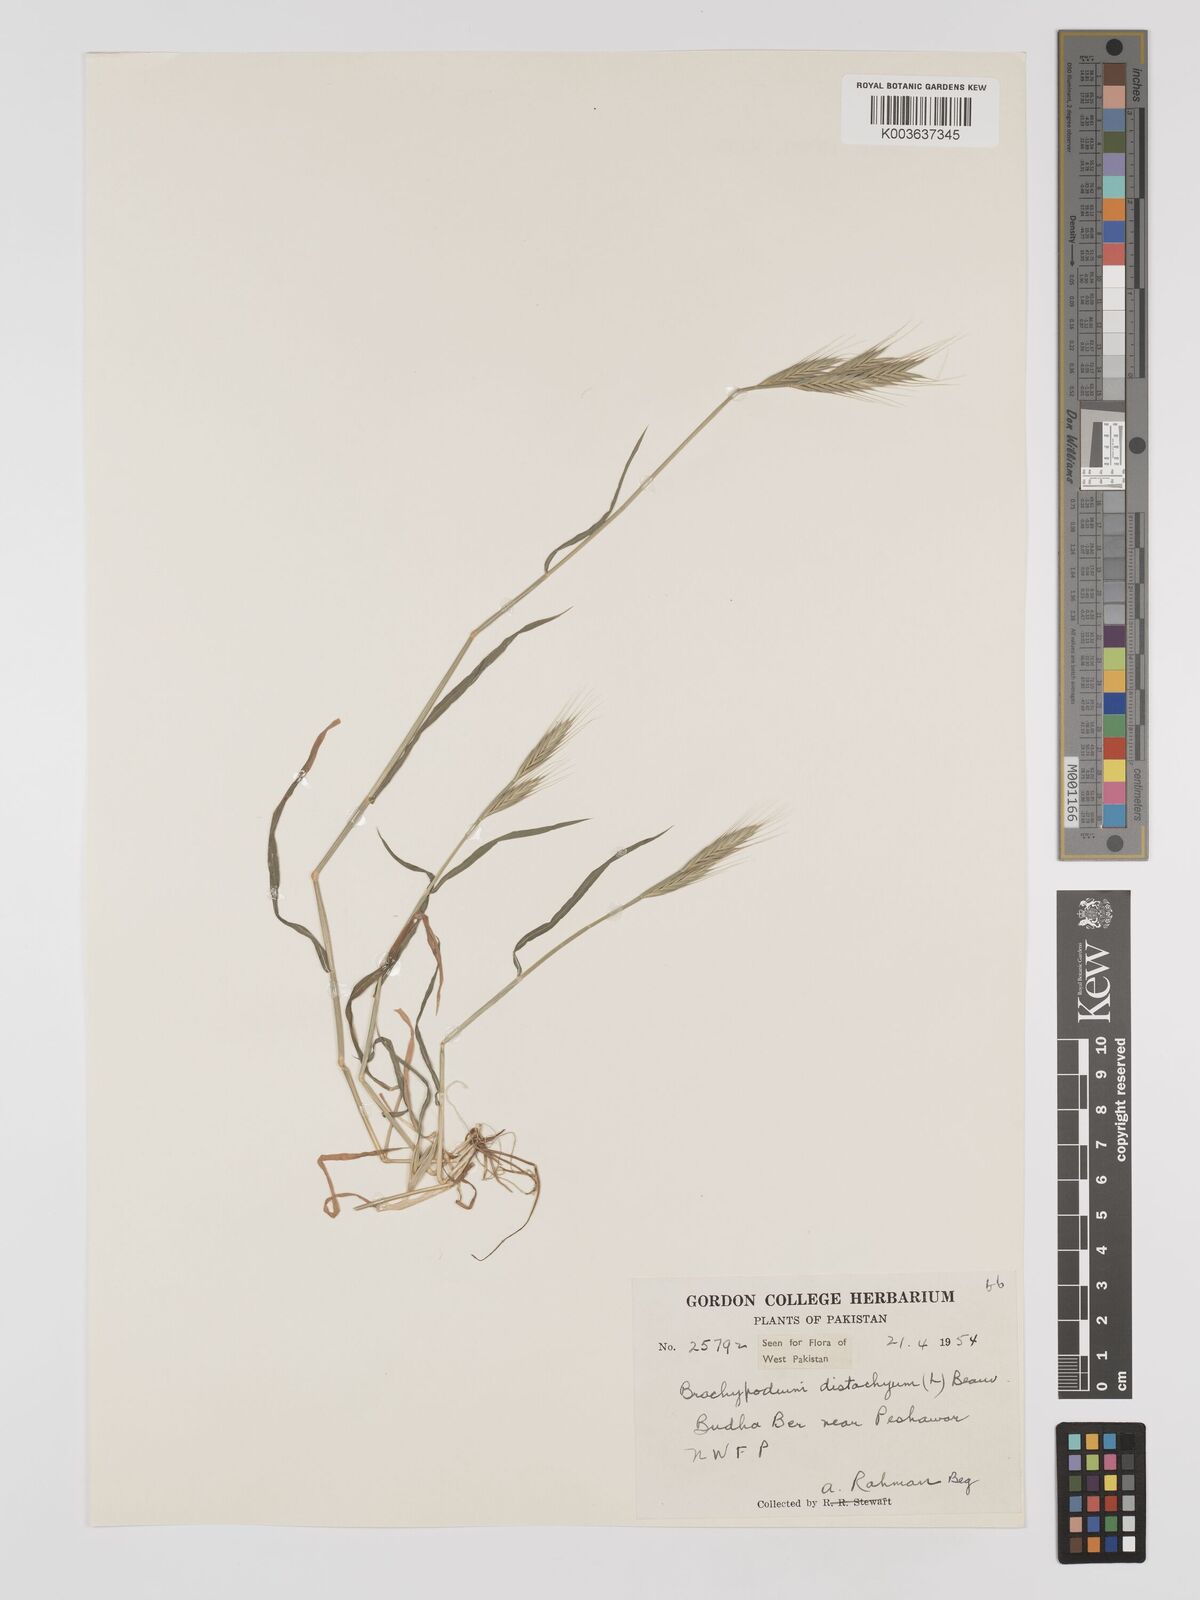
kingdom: Plantae
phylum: Tracheophyta
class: Liliopsida
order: Poales
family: Poaceae
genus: Brachypodium
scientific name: Brachypodium distachyon
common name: Stiff brome
